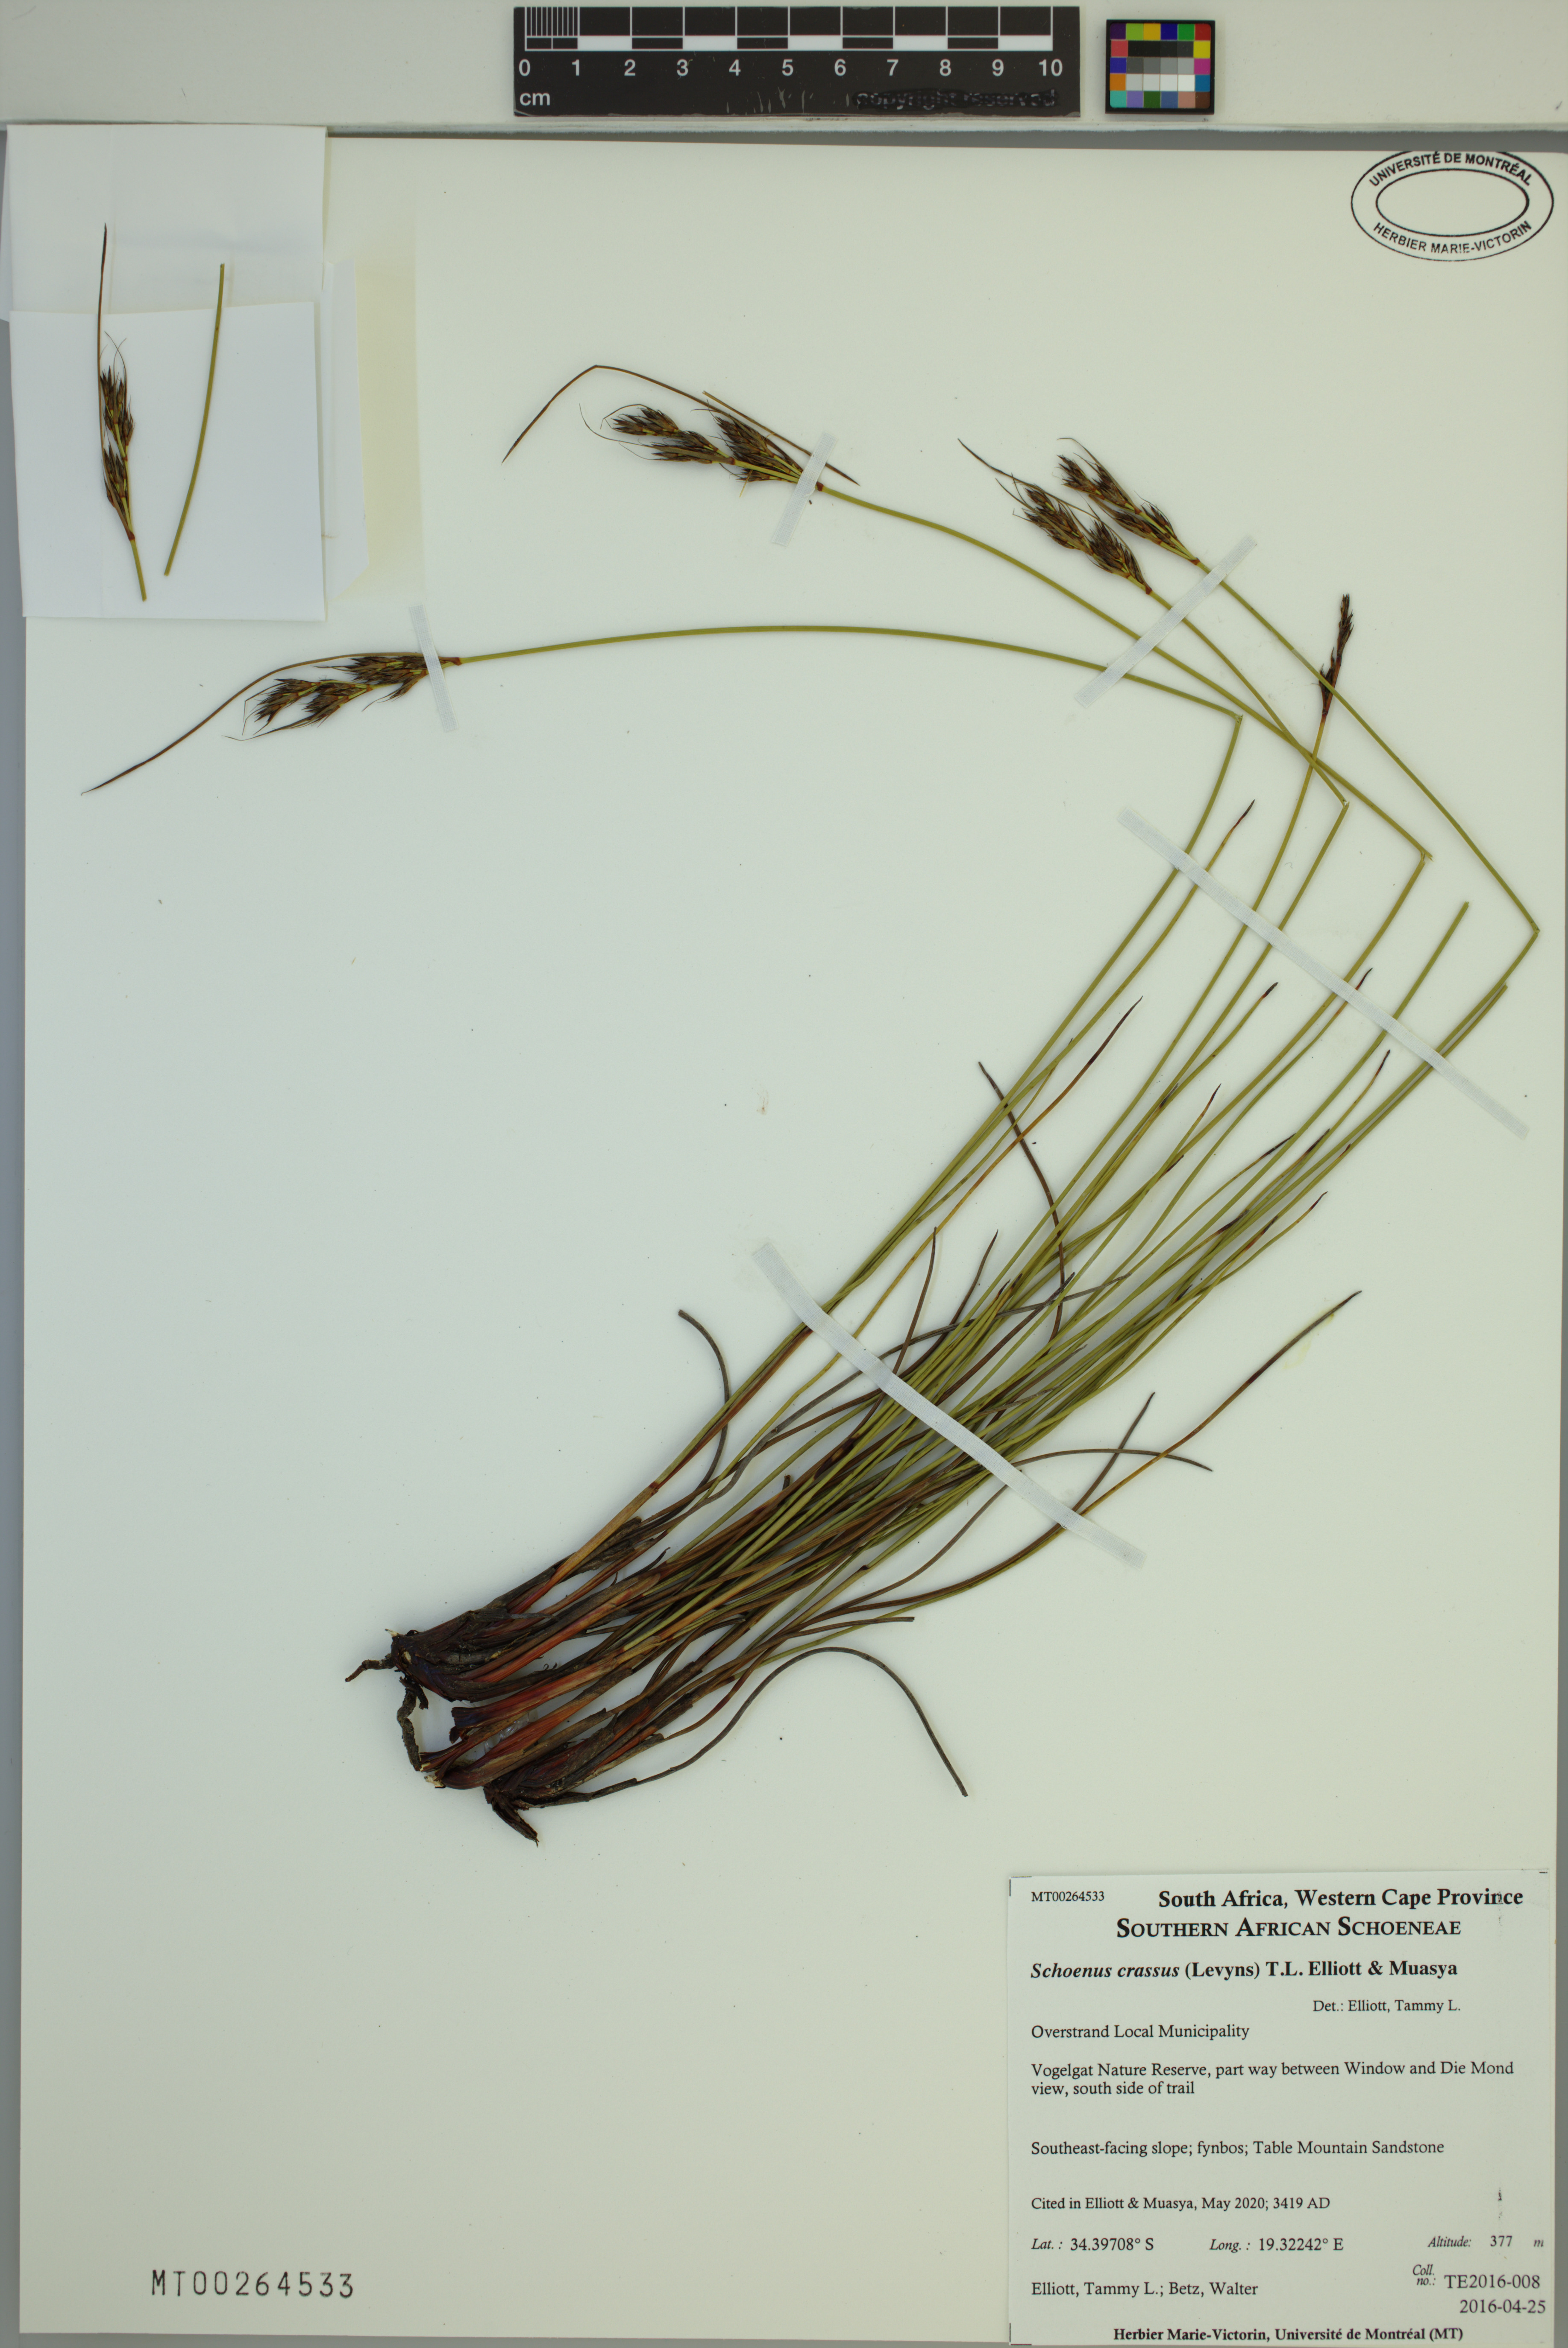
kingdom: Plantae
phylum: Tracheophyta
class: Liliopsida
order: Poales
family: Cyperaceae
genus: Schoenus
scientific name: Schoenus crassus
